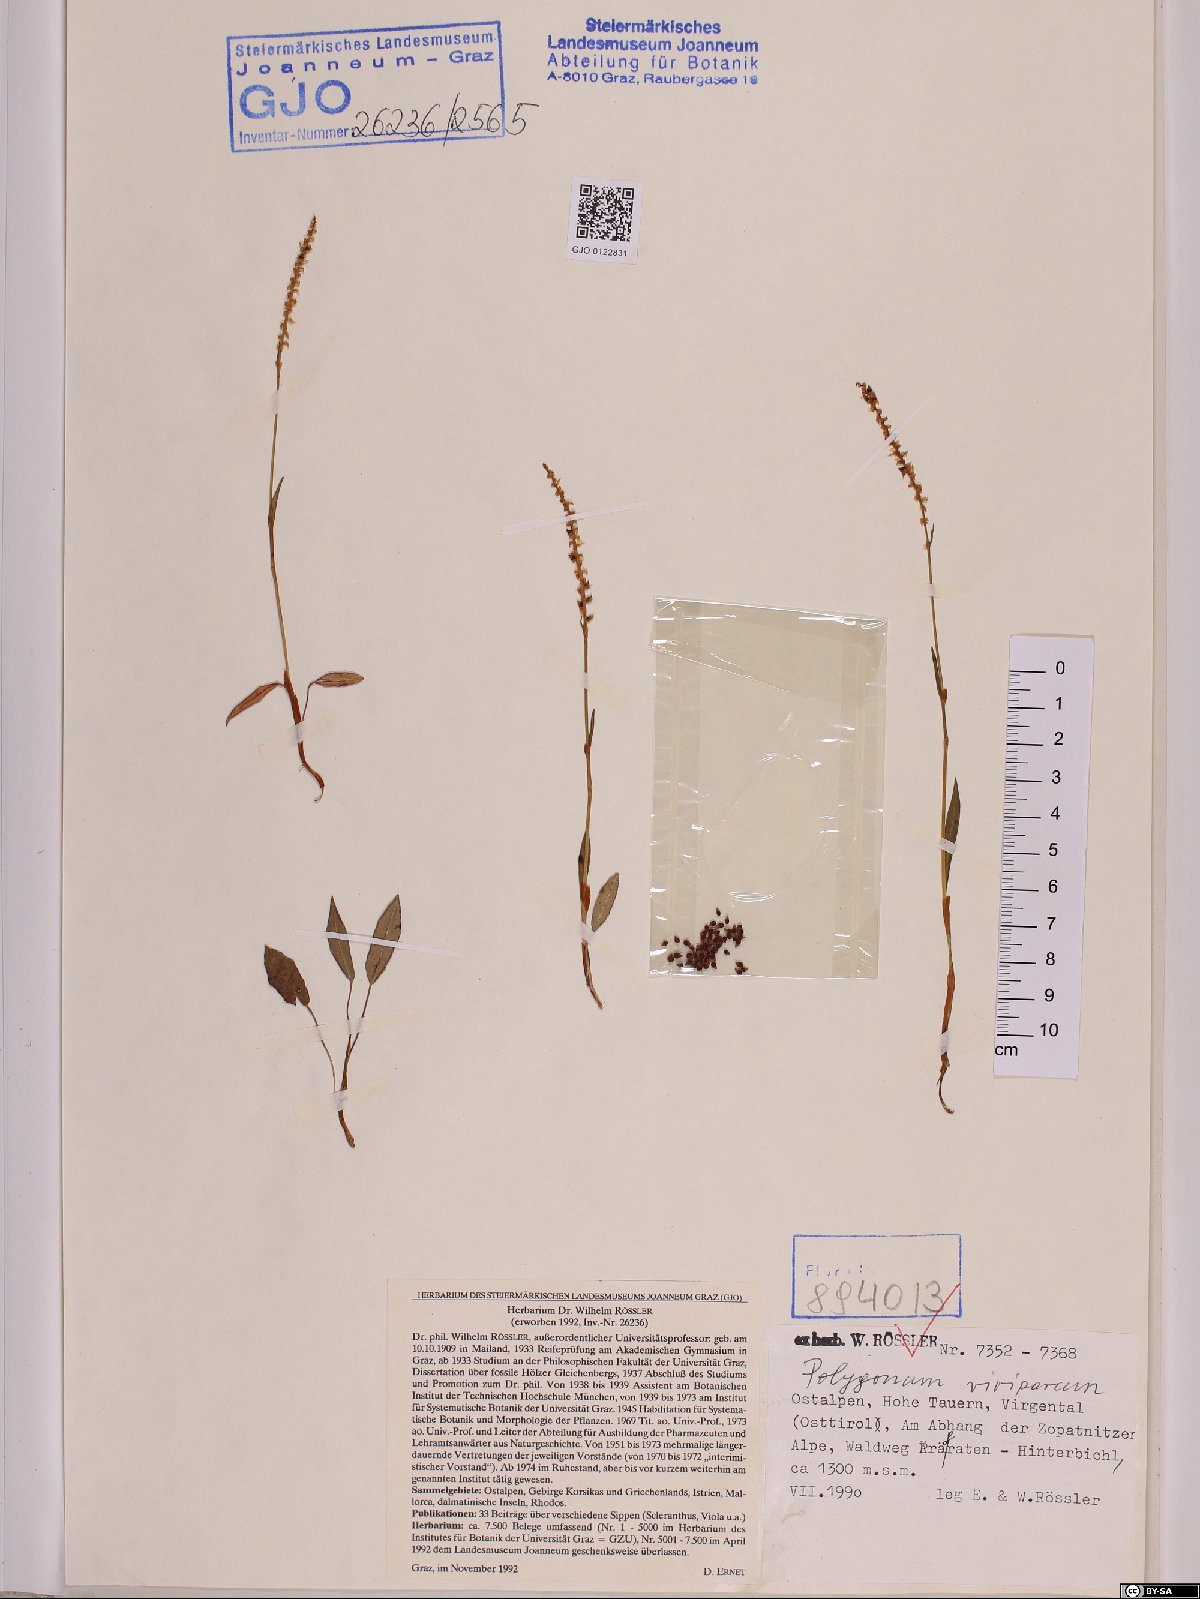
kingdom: Plantae
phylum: Tracheophyta
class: Magnoliopsida
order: Caryophyllales
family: Polygonaceae
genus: Bistorta
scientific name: Bistorta vivipara
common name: Alpine bistort
